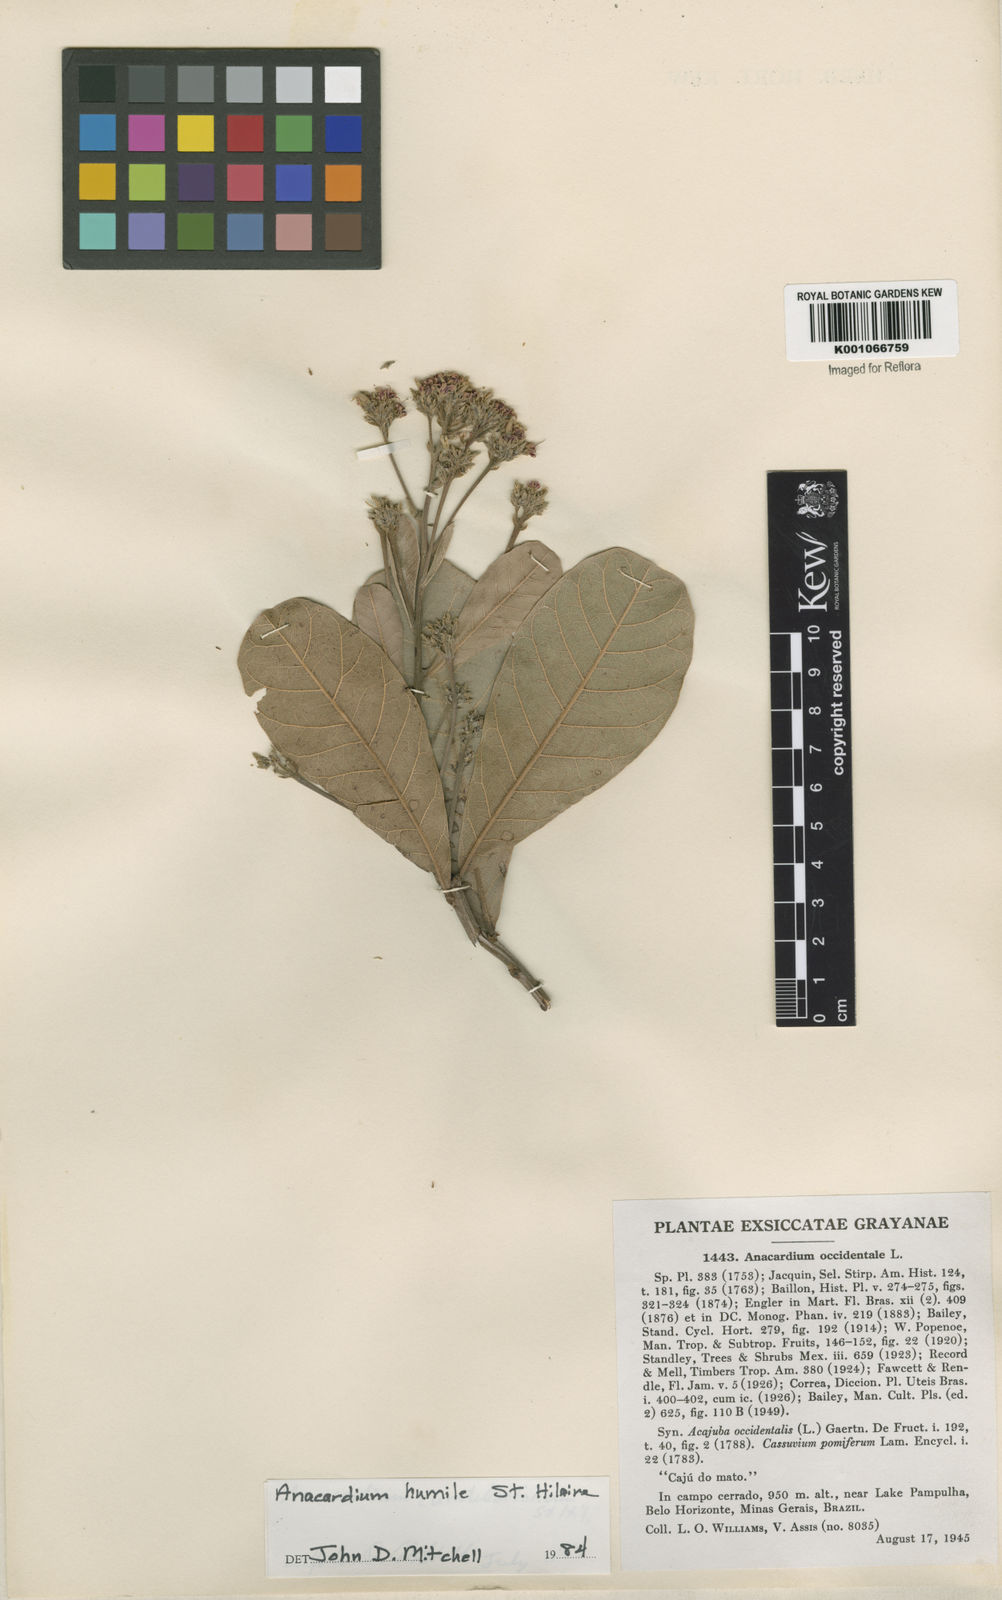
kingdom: Plantae
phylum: Tracheophyta
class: Magnoliopsida
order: Sapindales
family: Anacardiaceae
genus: Anacardium
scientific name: Anacardium humile
